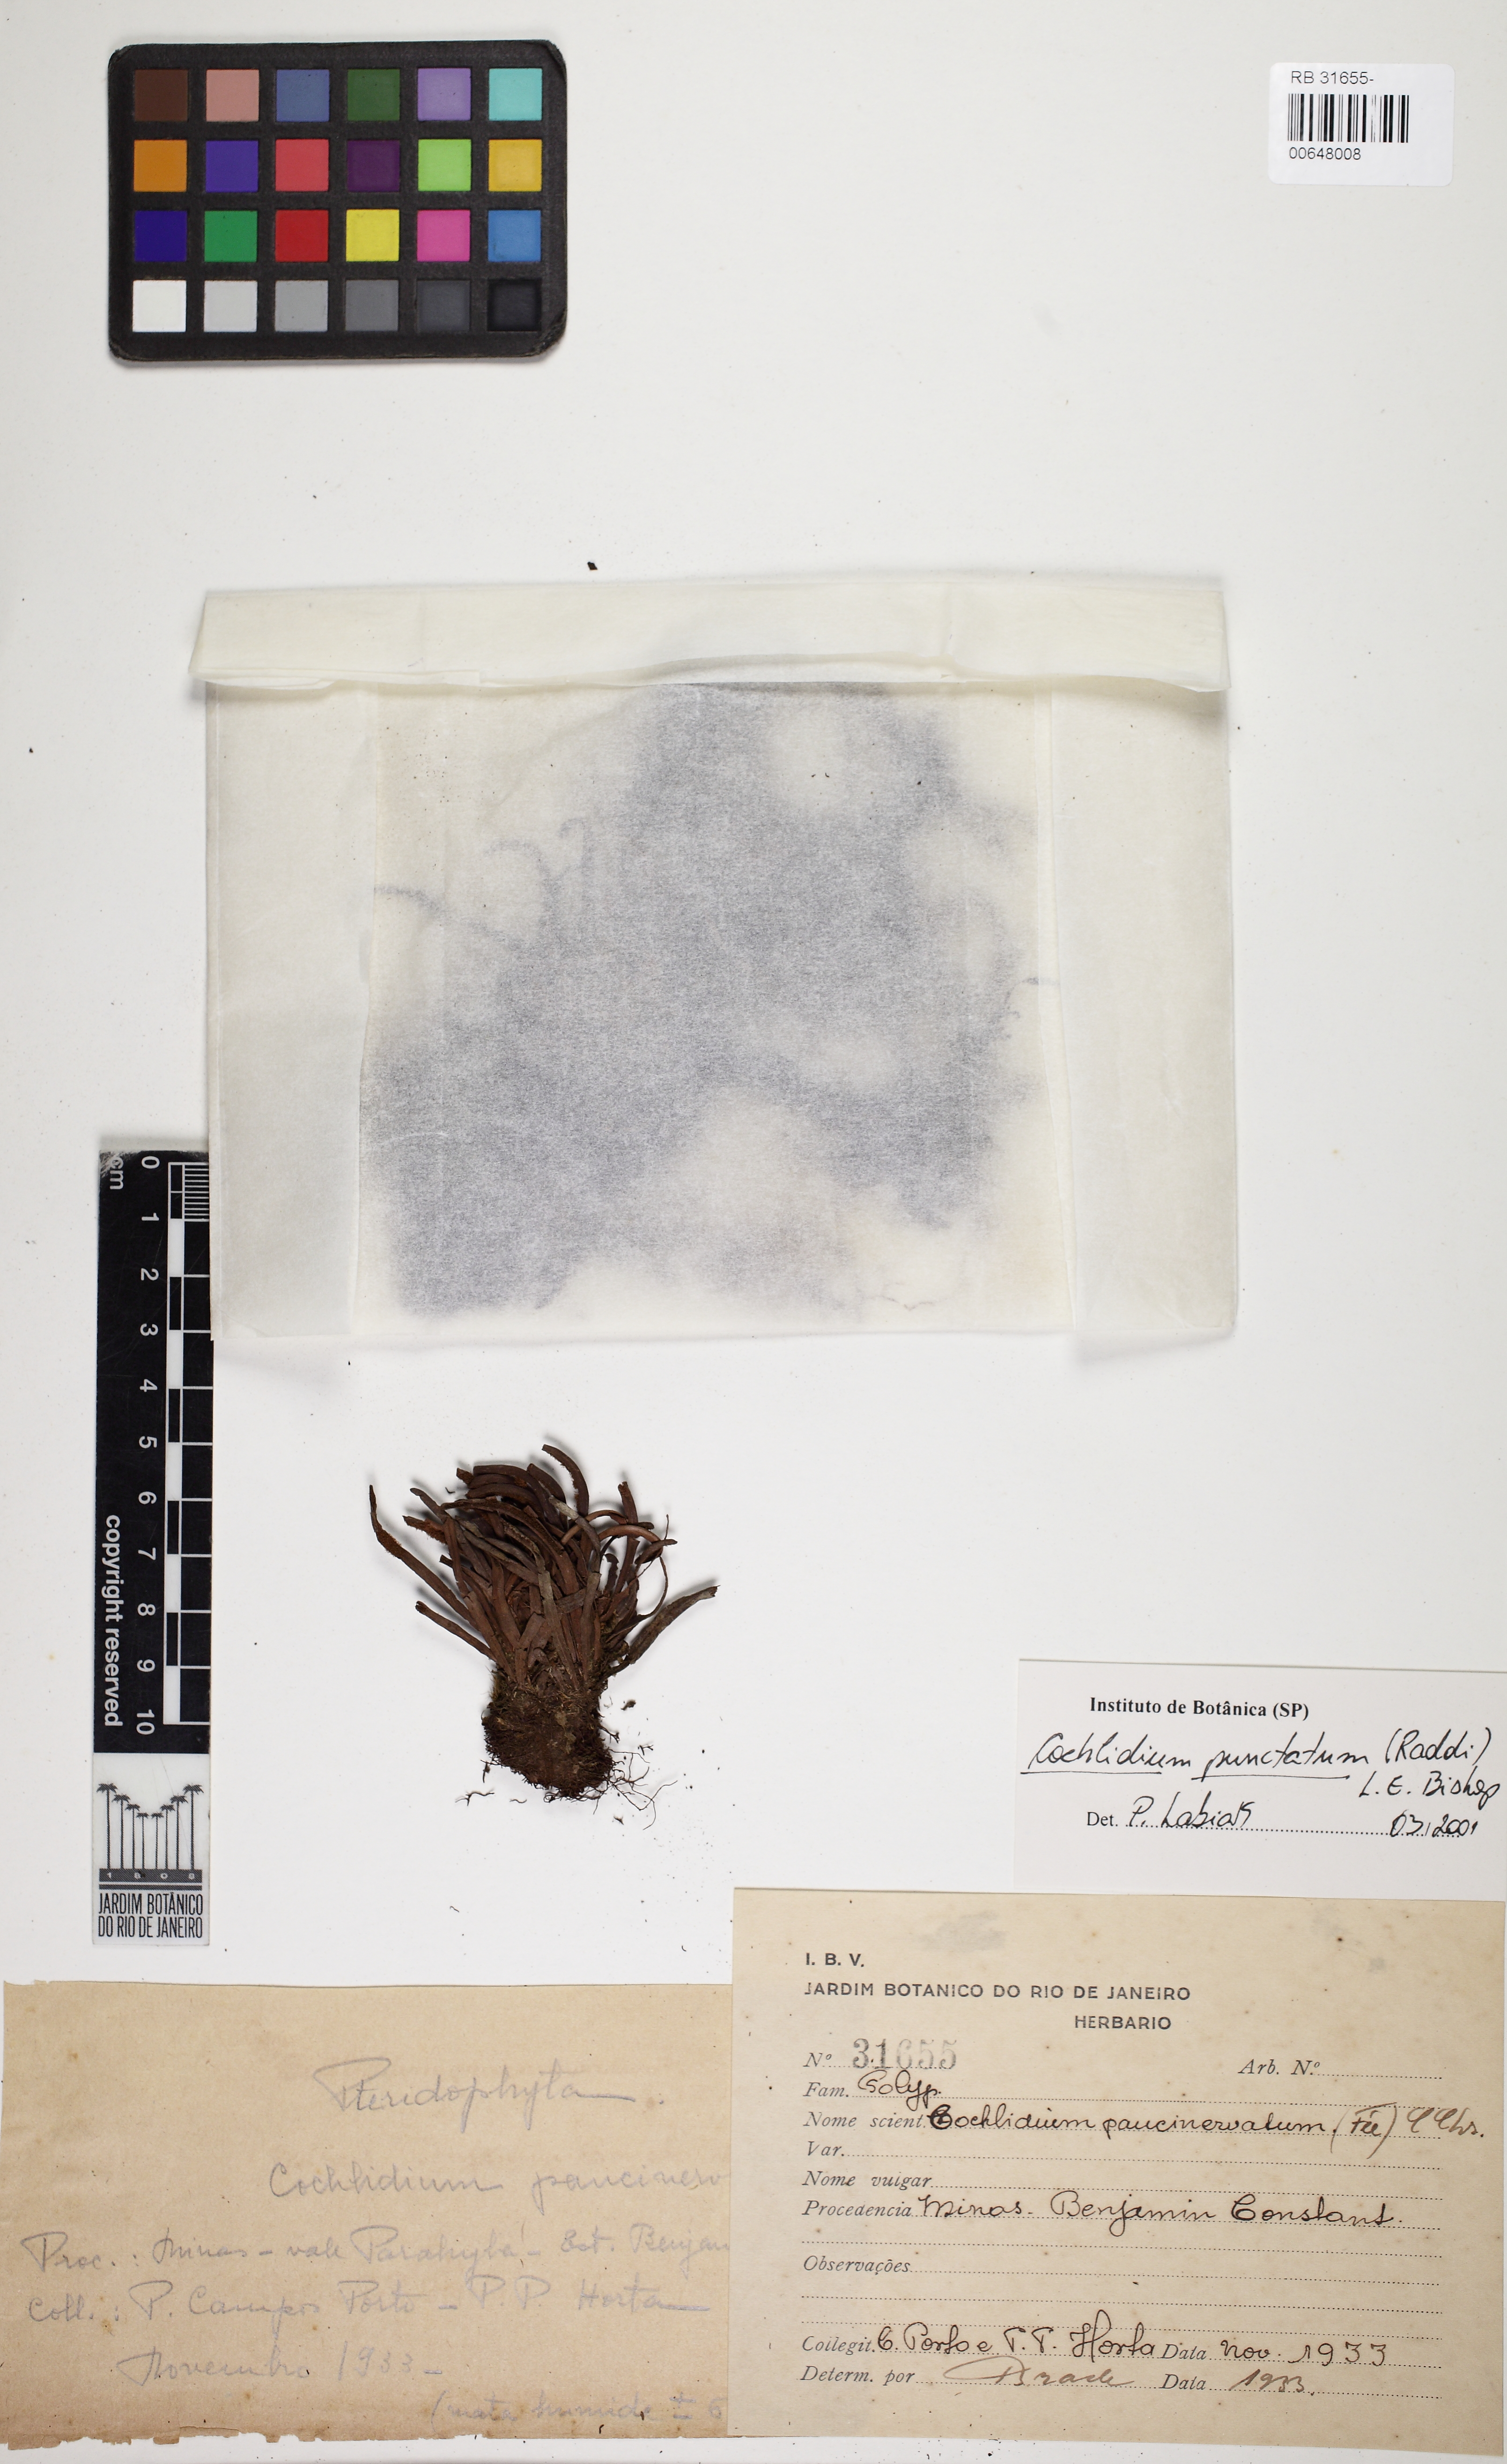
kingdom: Plantae
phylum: Tracheophyta
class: Polypodiopsida
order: Polypodiales
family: Polypodiaceae
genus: Cochlidium
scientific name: Cochlidium punctatum
